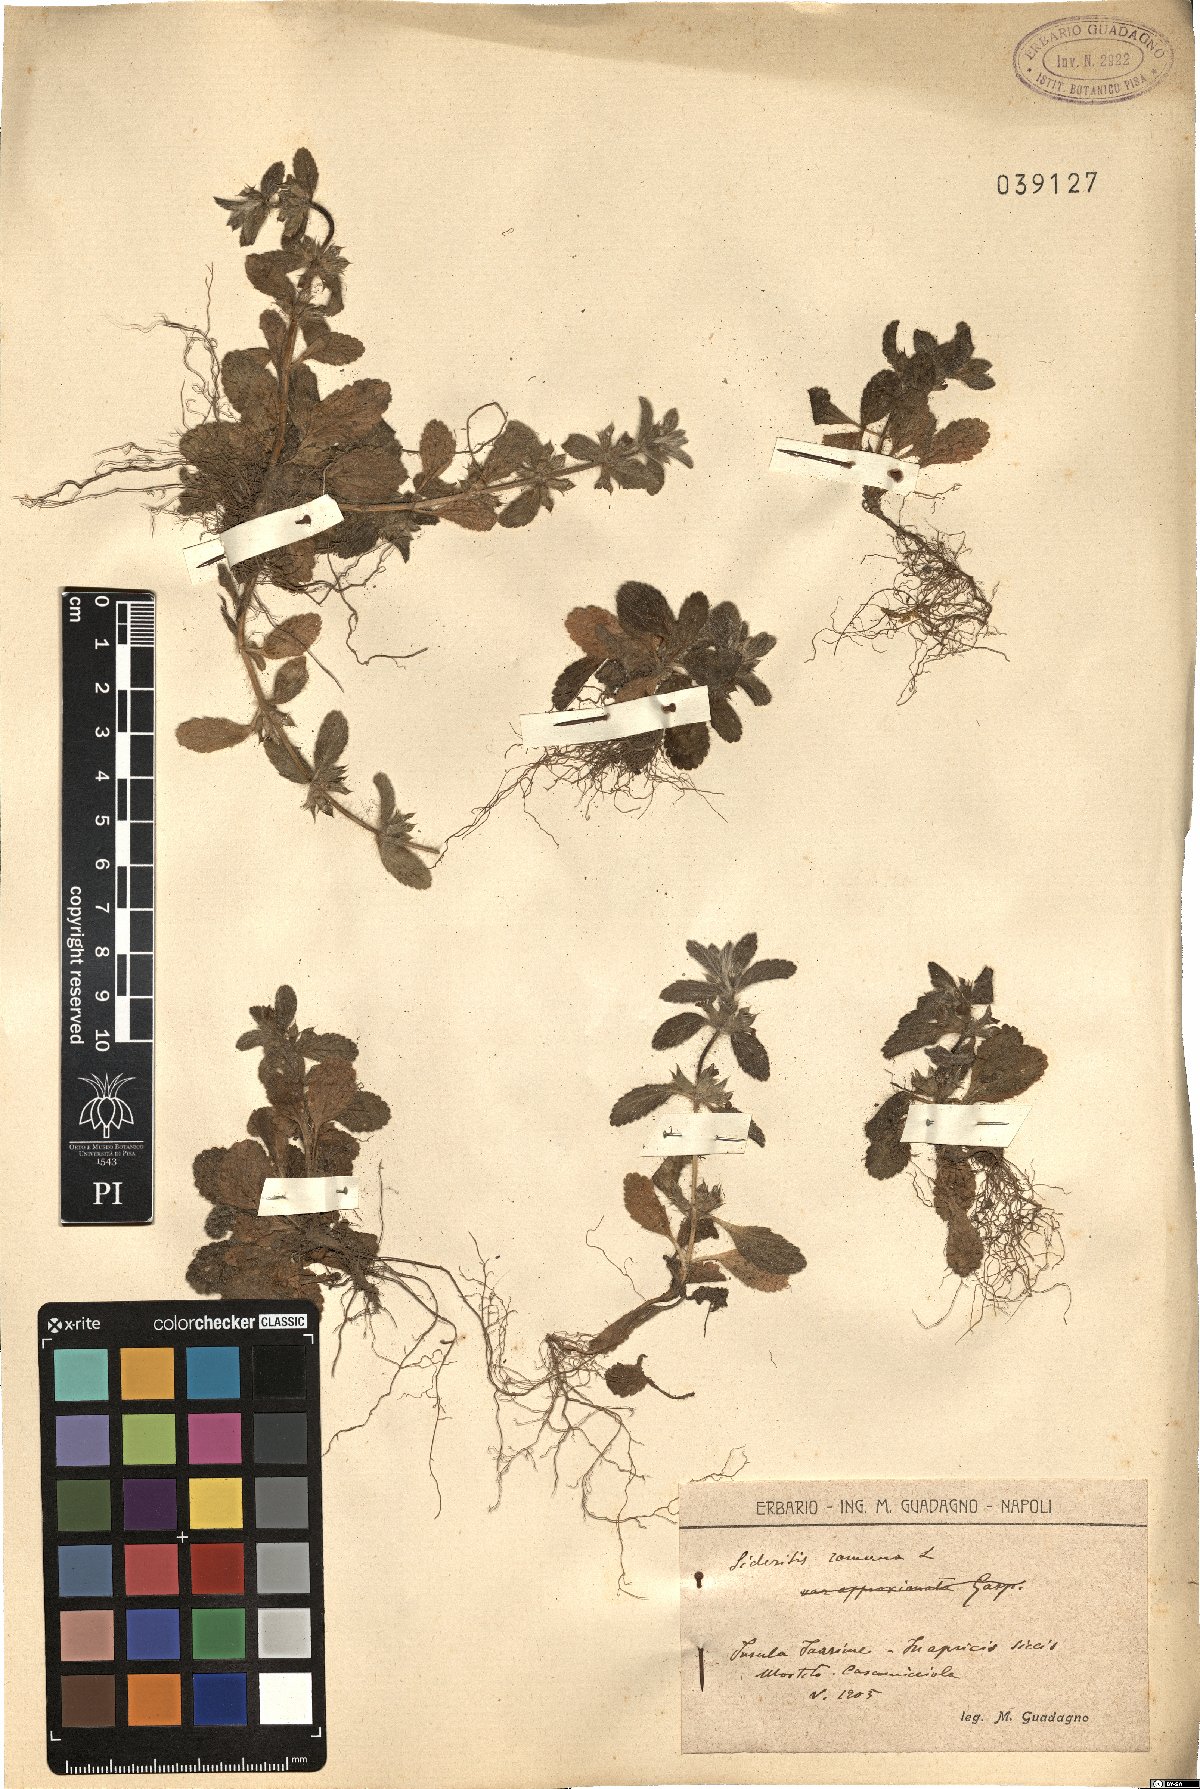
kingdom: Plantae
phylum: Tracheophyta
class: Magnoliopsida
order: Lamiales
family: Lamiaceae
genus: Sideritis
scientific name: Sideritis romana
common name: Simplebeak ironwort
